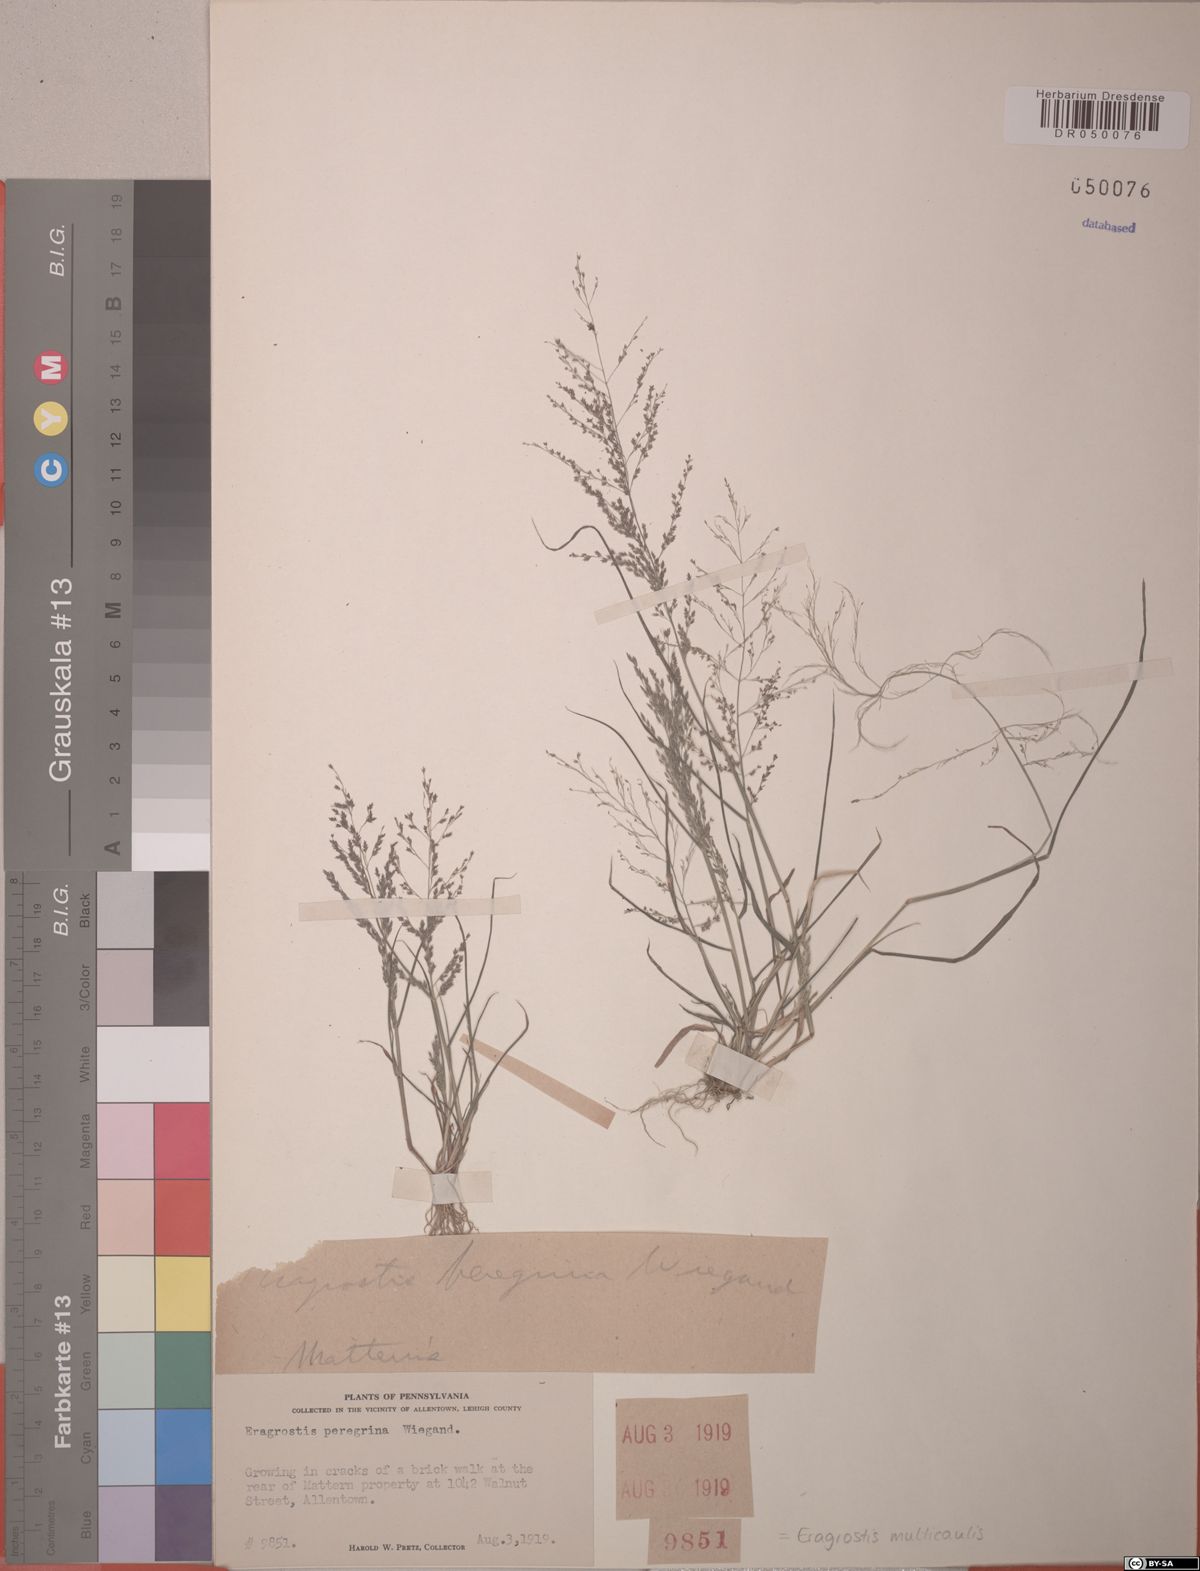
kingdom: Plantae
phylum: Tracheophyta
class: Liliopsida
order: Poales
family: Poaceae
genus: Eragrostis
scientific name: Eragrostis multicaulis
